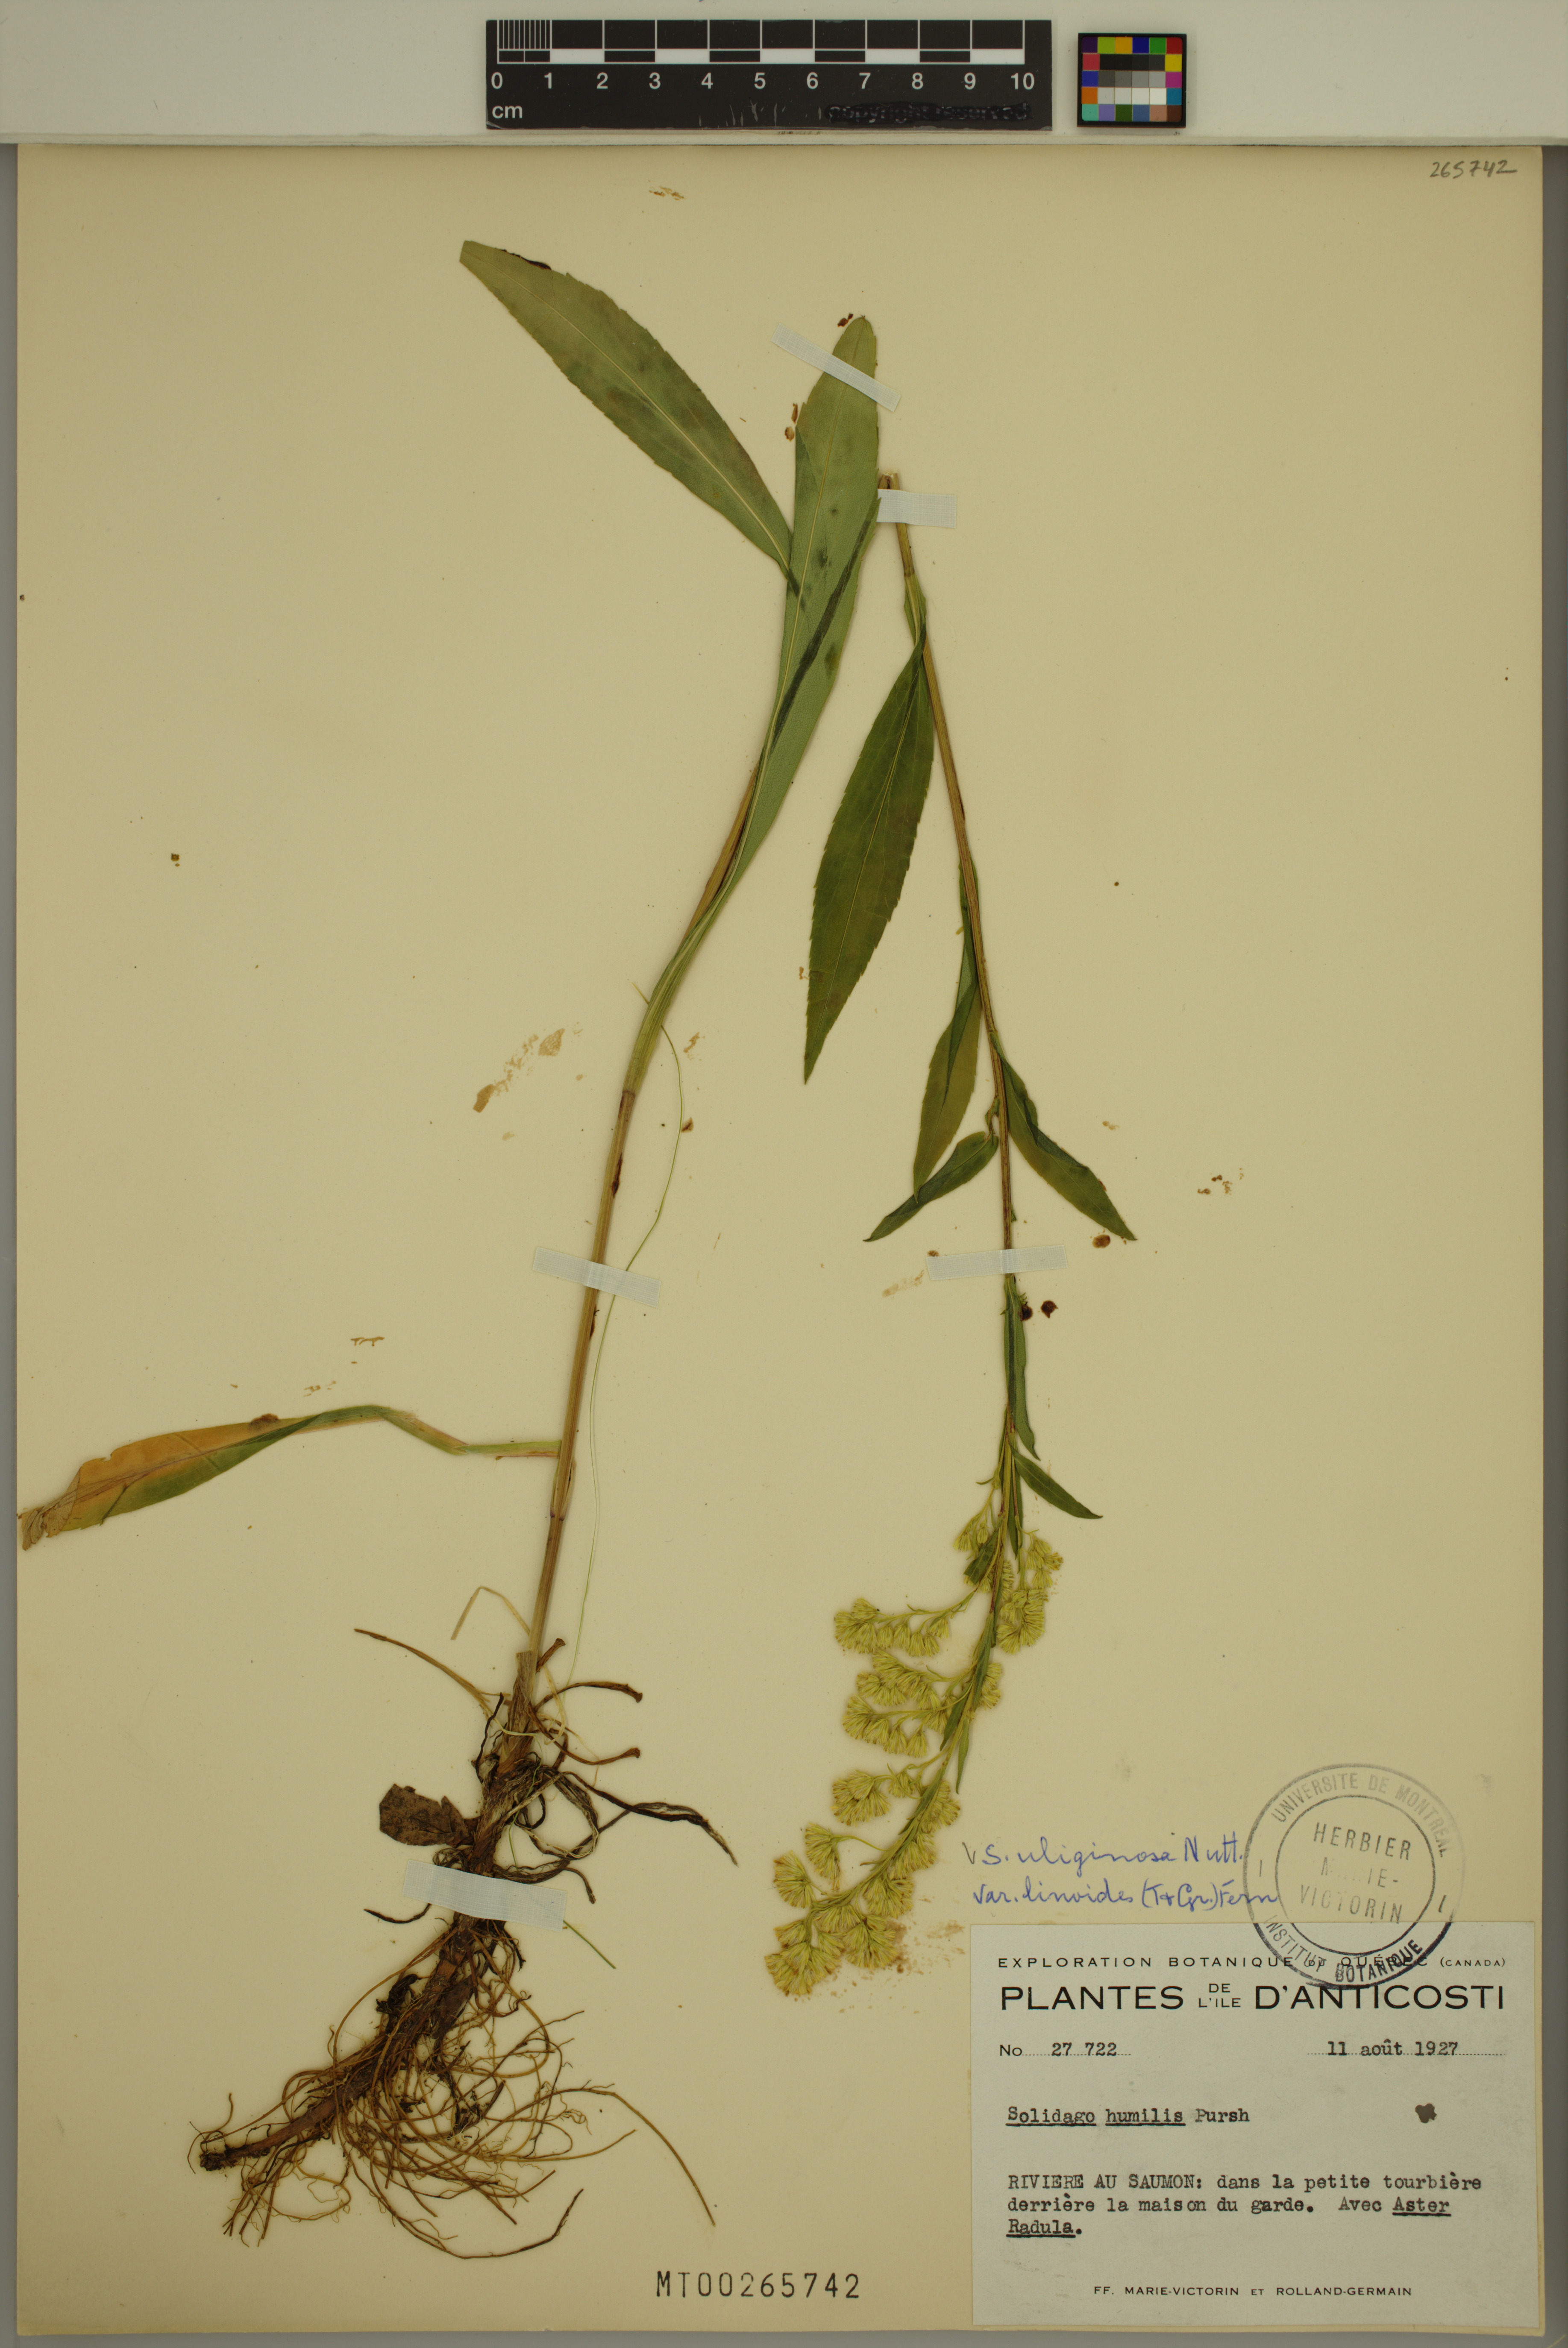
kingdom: Plantae
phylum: Tracheophyta
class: Magnoliopsida
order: Asterales
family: Asteraceae
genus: Solidago
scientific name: Solidago uliginosa
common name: Bog goldenrod
